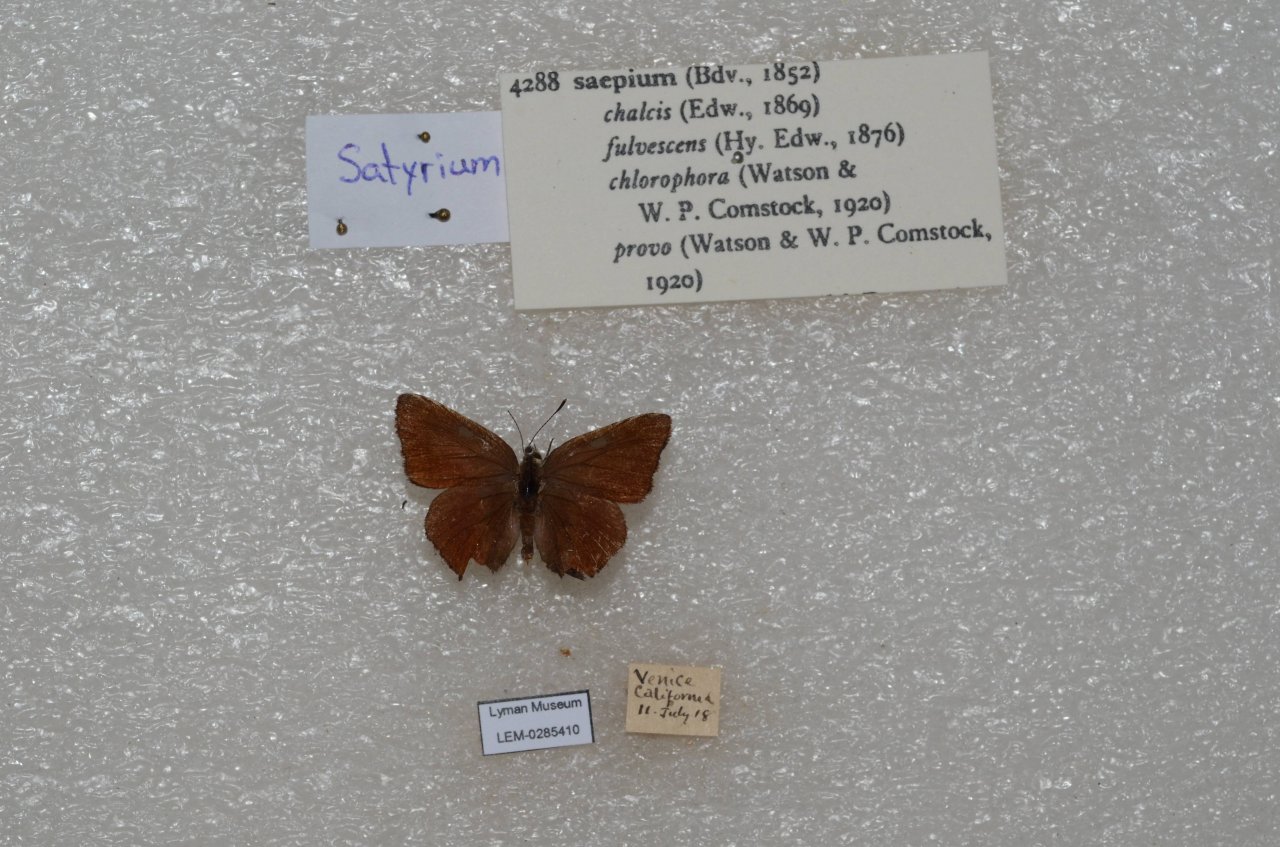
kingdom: Animalia
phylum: Arthropoda
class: Insecta
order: Lepidoptera
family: Lycaenidae
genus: Plebejus
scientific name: Plebejus saepiolus
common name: Greenish Blue
